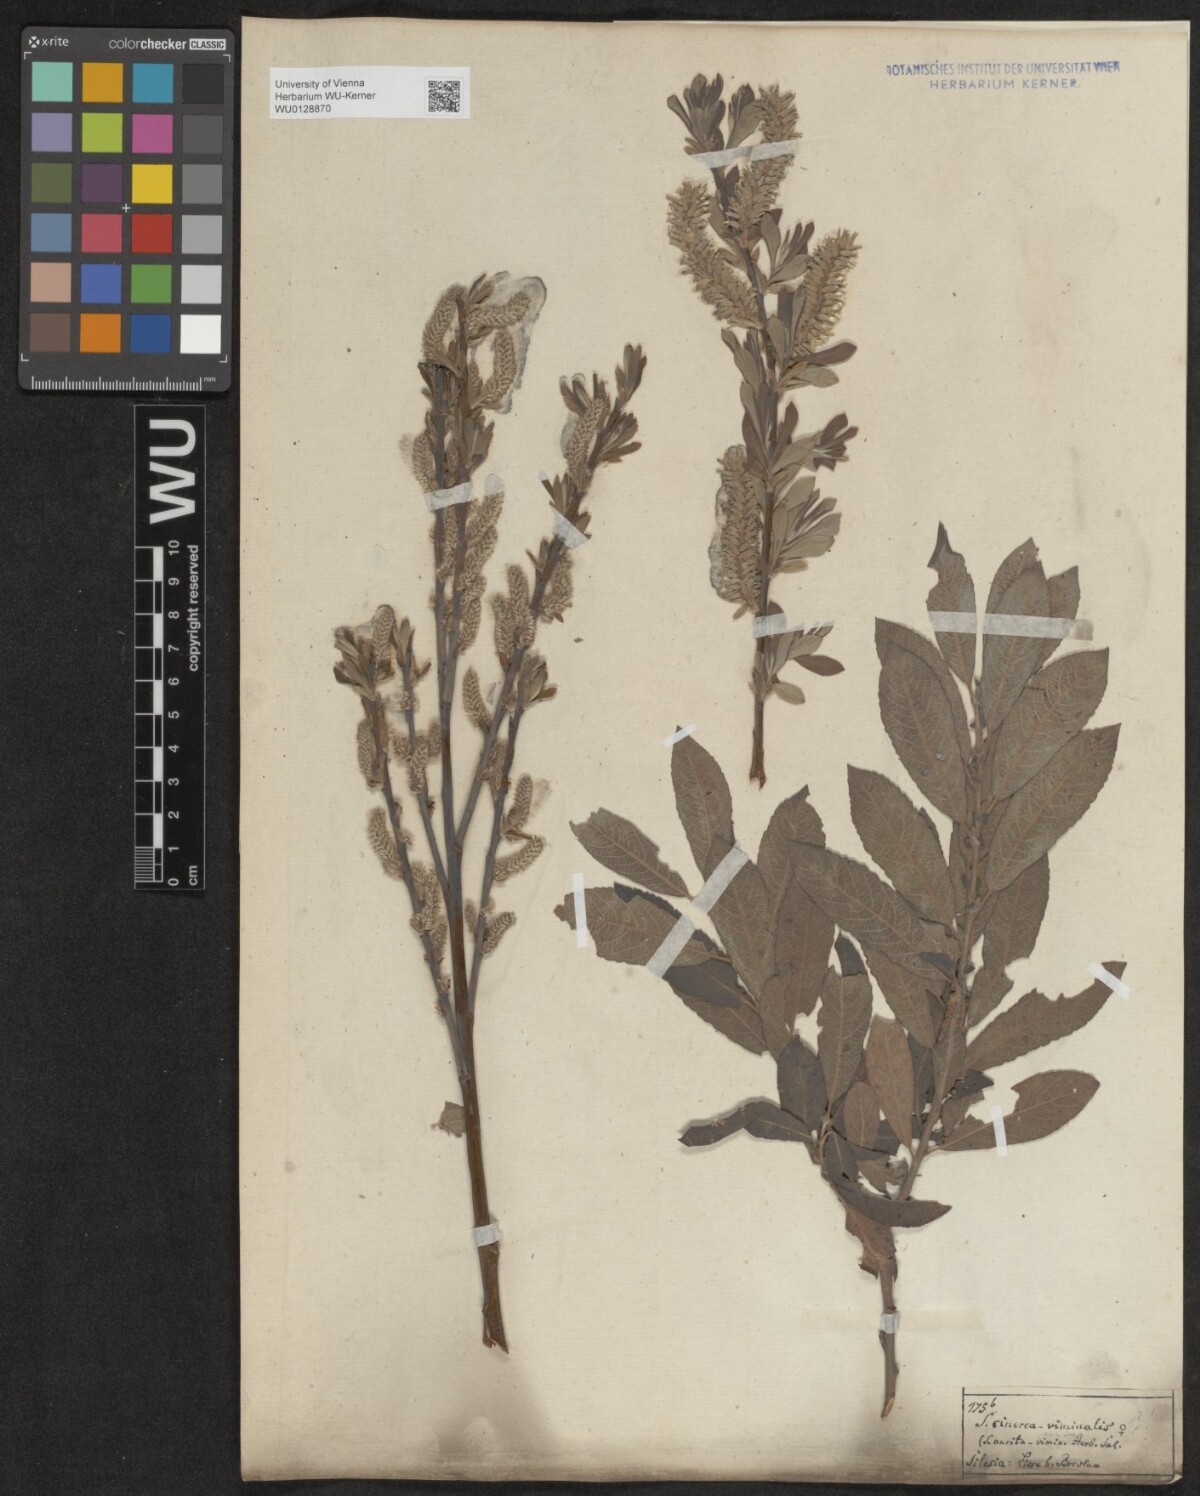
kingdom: Plantae
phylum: Tracheophyta
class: Magnoliopsida
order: Malpighiales
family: Salicaceae
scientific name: Salicaceae
